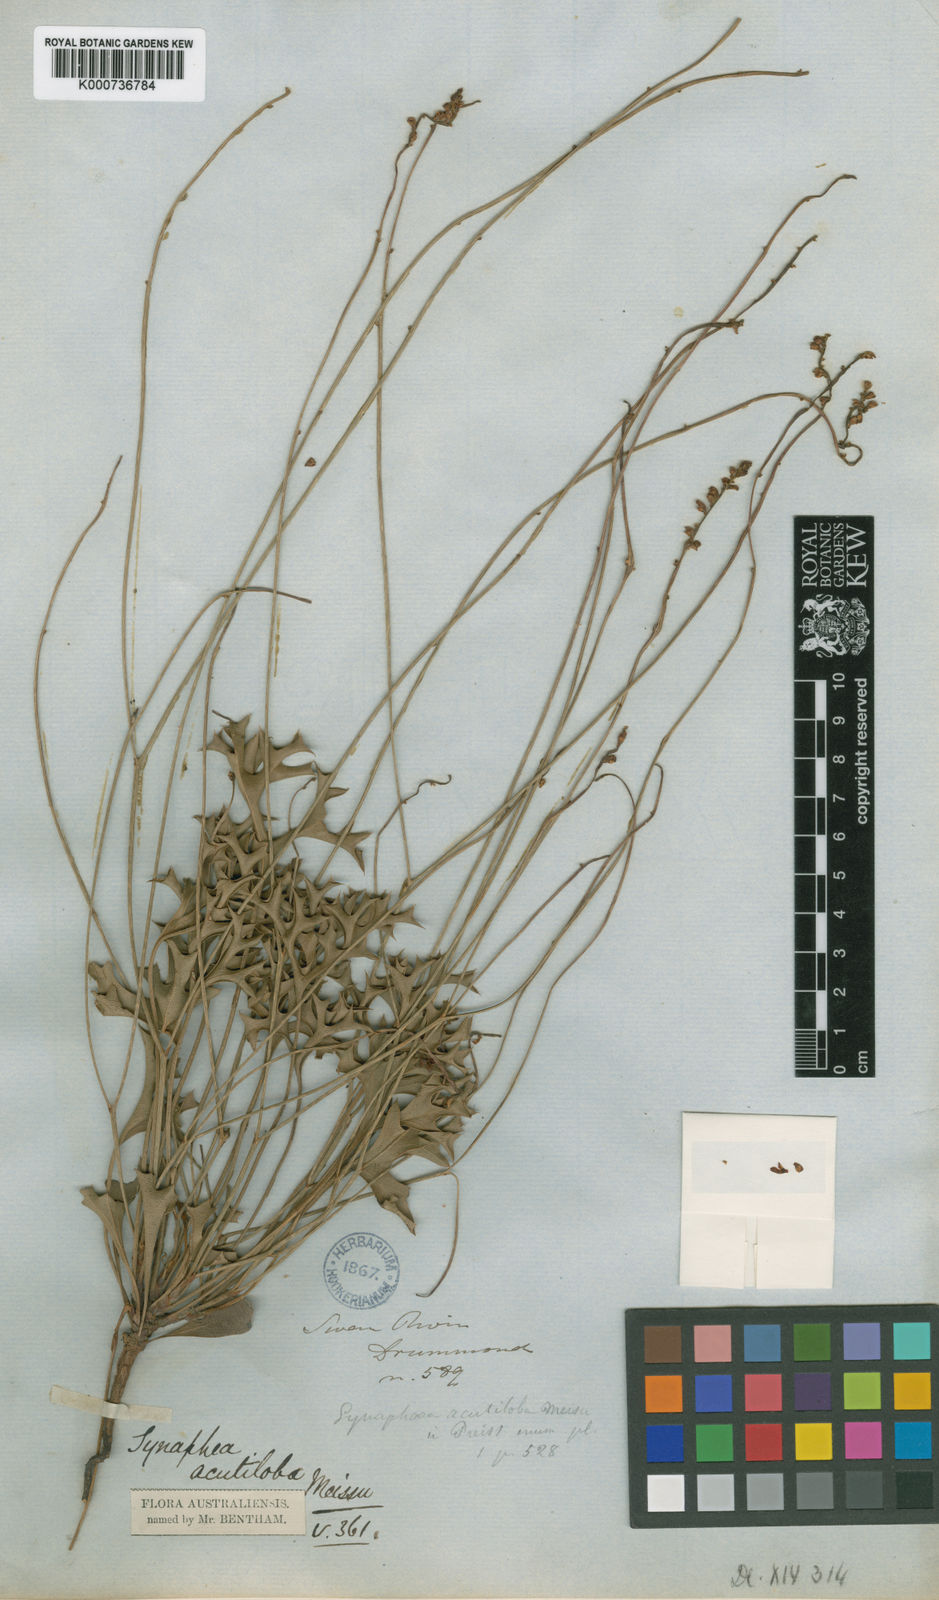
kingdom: Plantae
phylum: Tracheophyta
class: Magnoliopsida
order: Proteales
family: Proteaceae
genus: Synaphea
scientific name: Synaphea acutiloba
